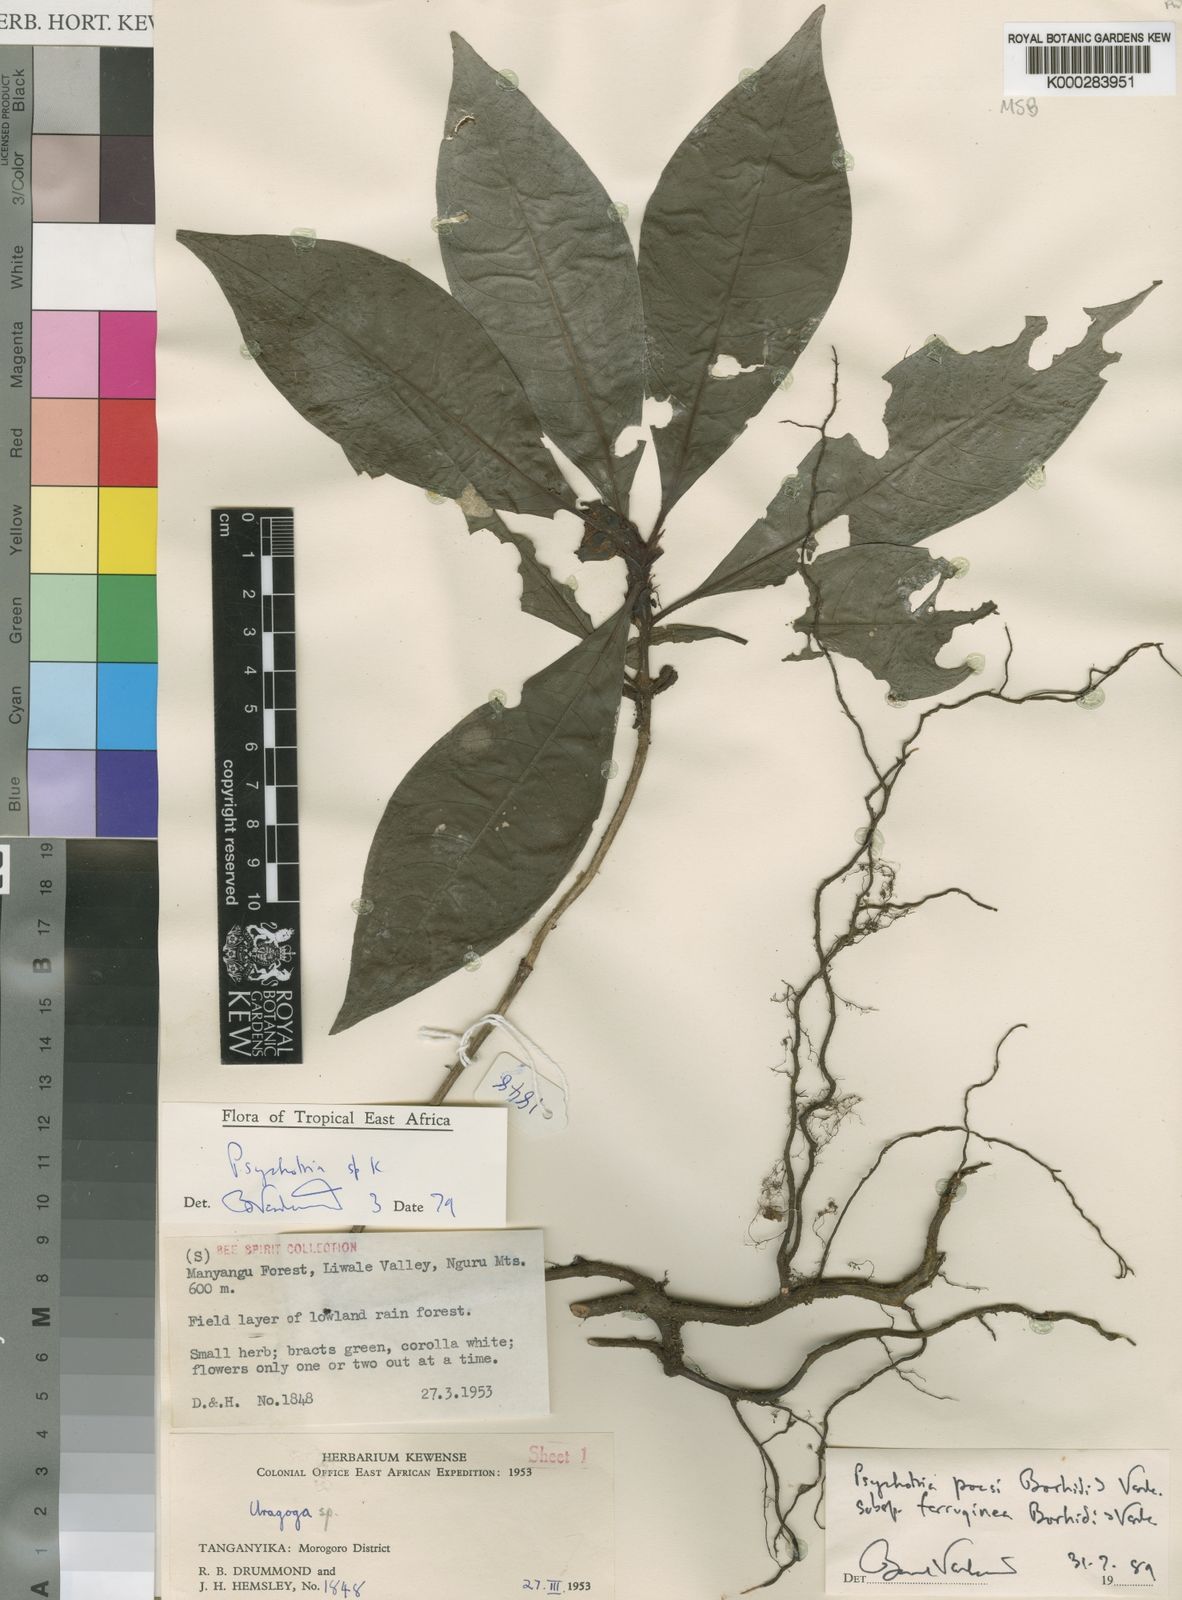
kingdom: Plantae
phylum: Tracheophyta
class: Magnoliopsida
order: Gentianales
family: Rubiaceae
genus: Psychotria
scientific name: Psychotria pocsii
